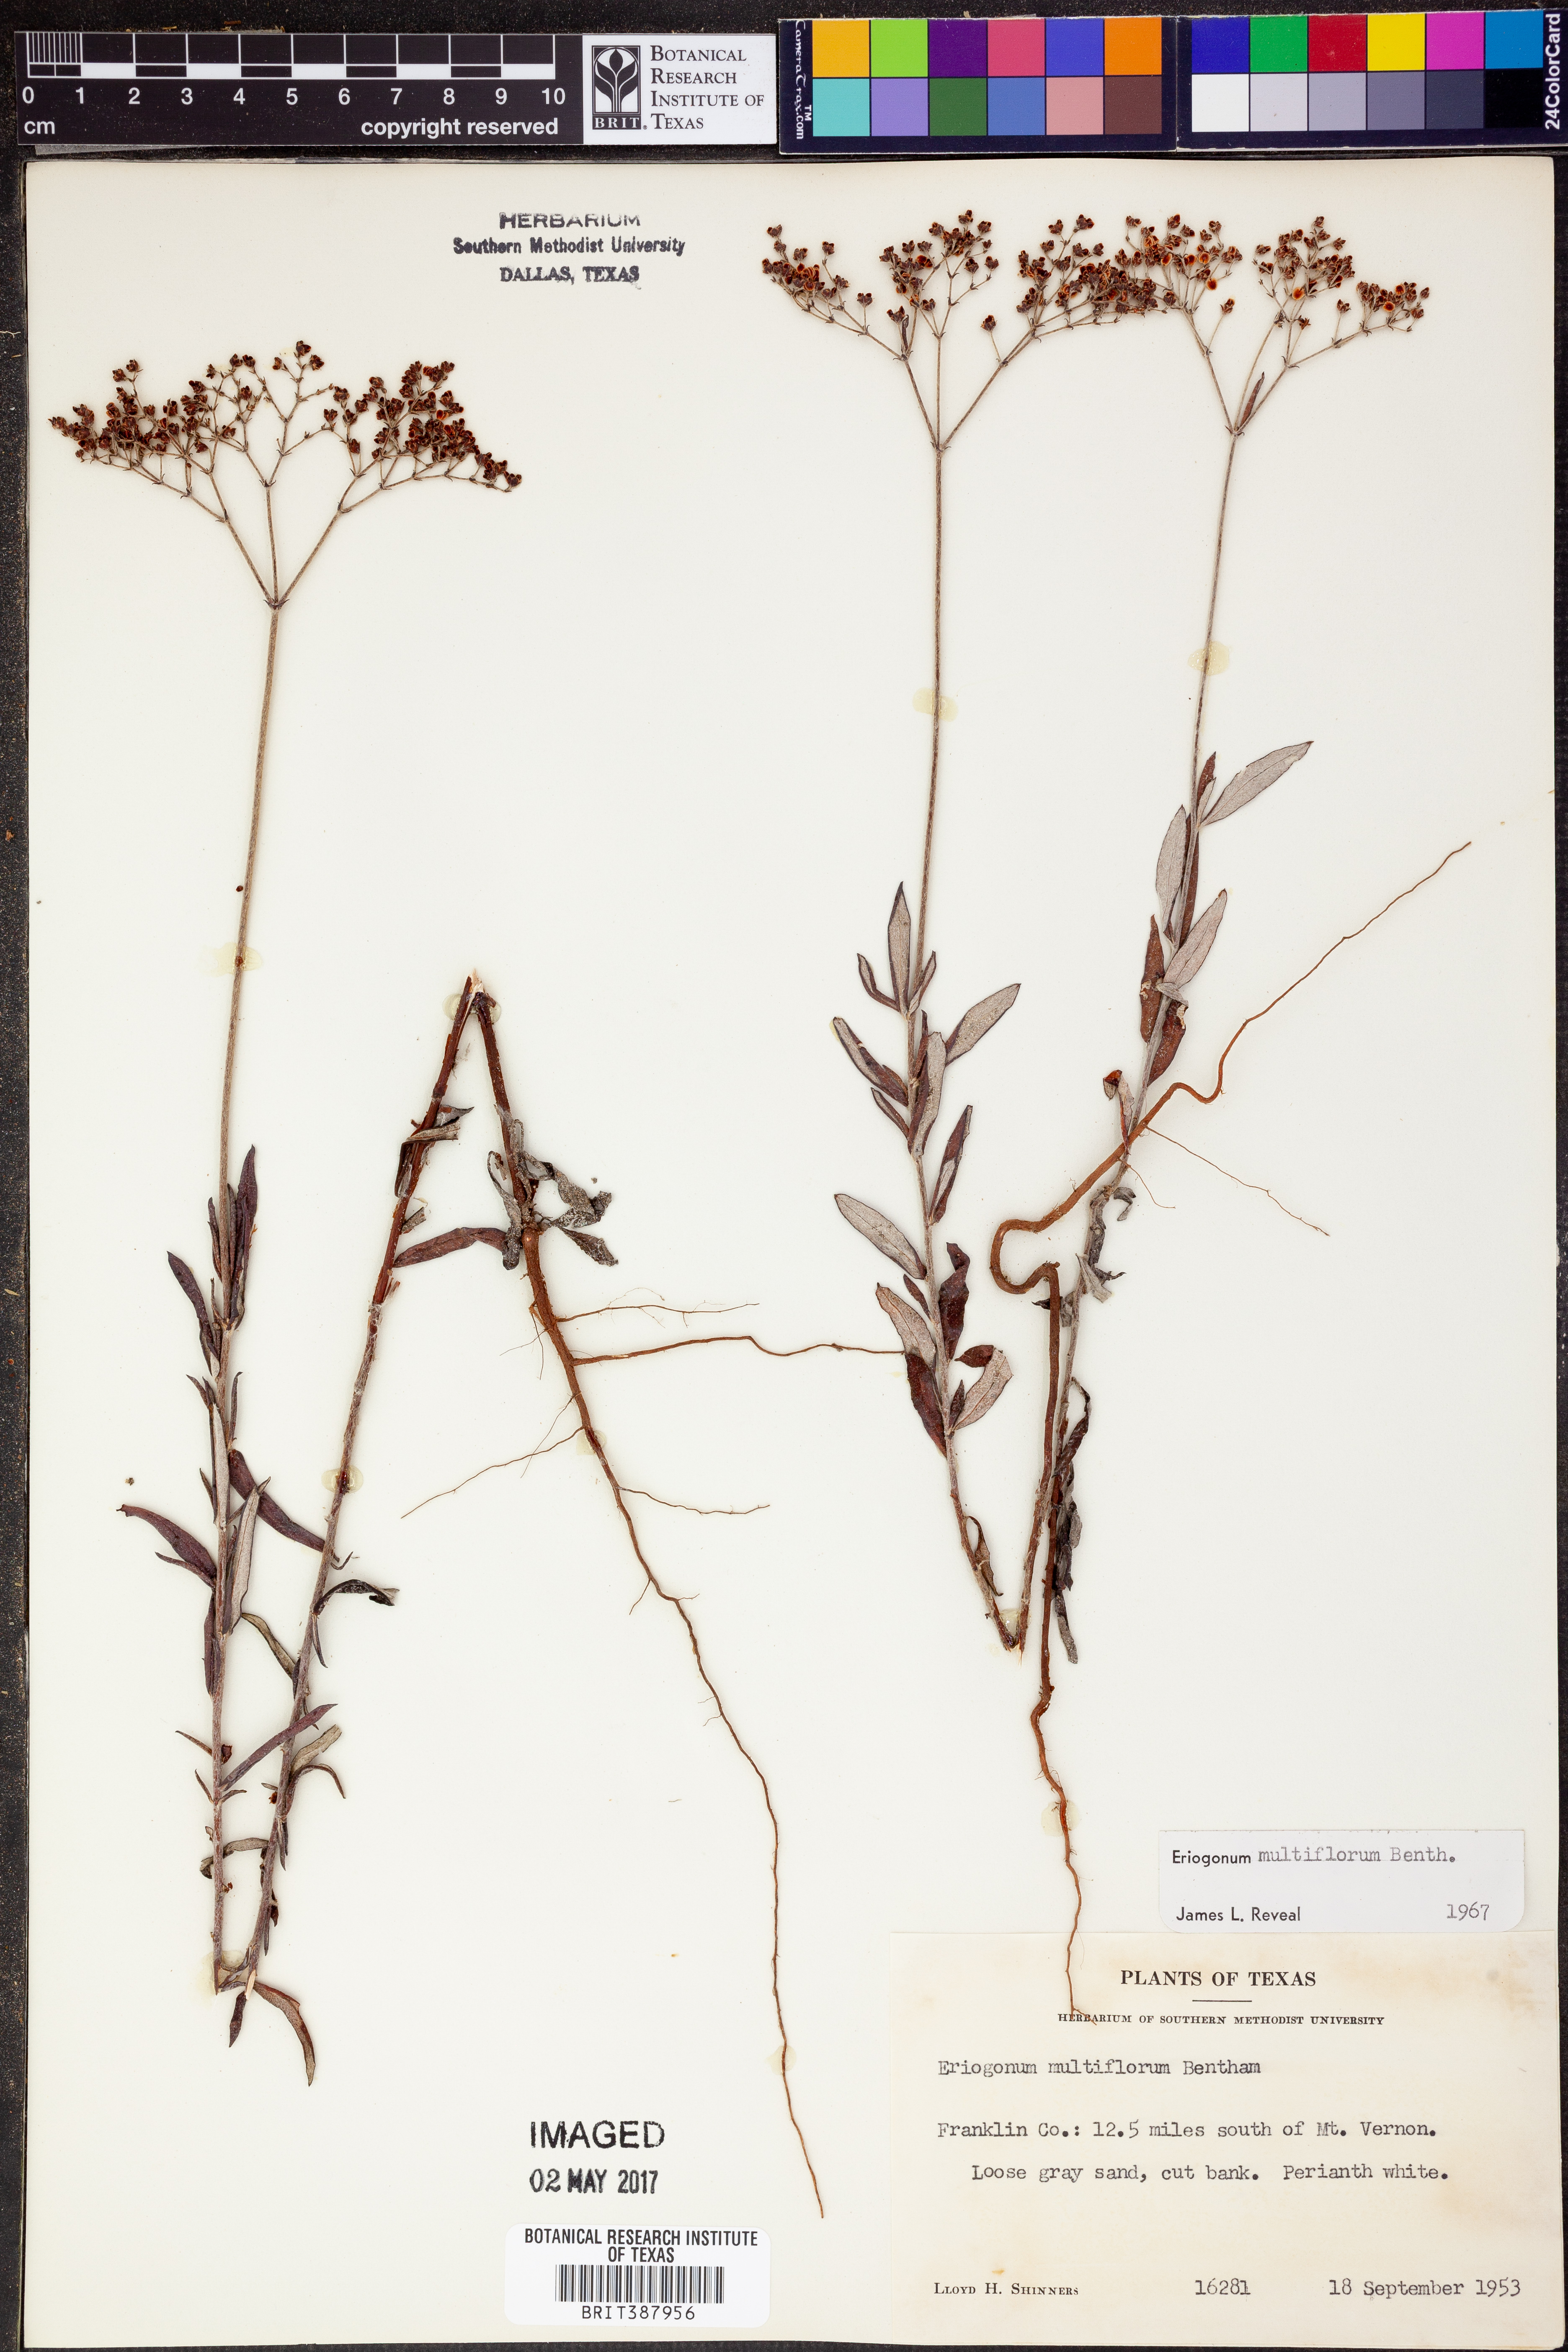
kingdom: Plantae
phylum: Tracheophyta
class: Magnoliopsida
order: Caryophyllales
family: Polygonaceae
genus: Eriogonum
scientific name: Eriogonum multiflorum
